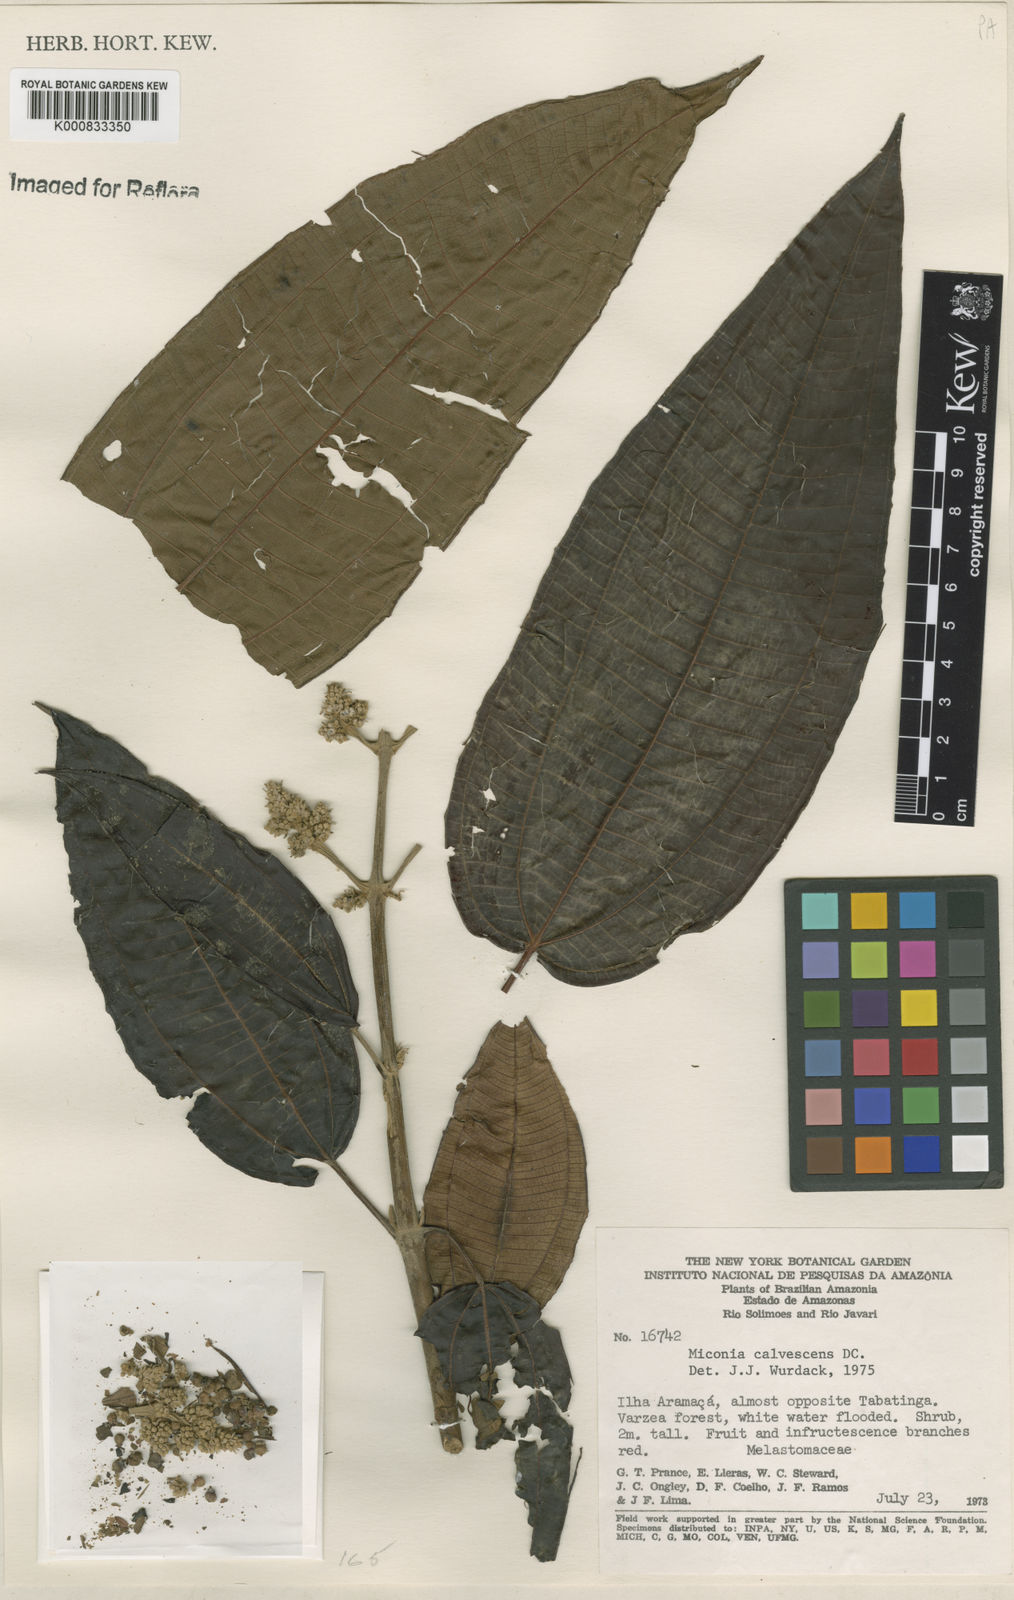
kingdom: Plantae
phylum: Tracheophyta
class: Magnoliopsida
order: Myrtales
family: Melastomataceae
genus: Miconia
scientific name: Miconia calvescens
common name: Purple plague
